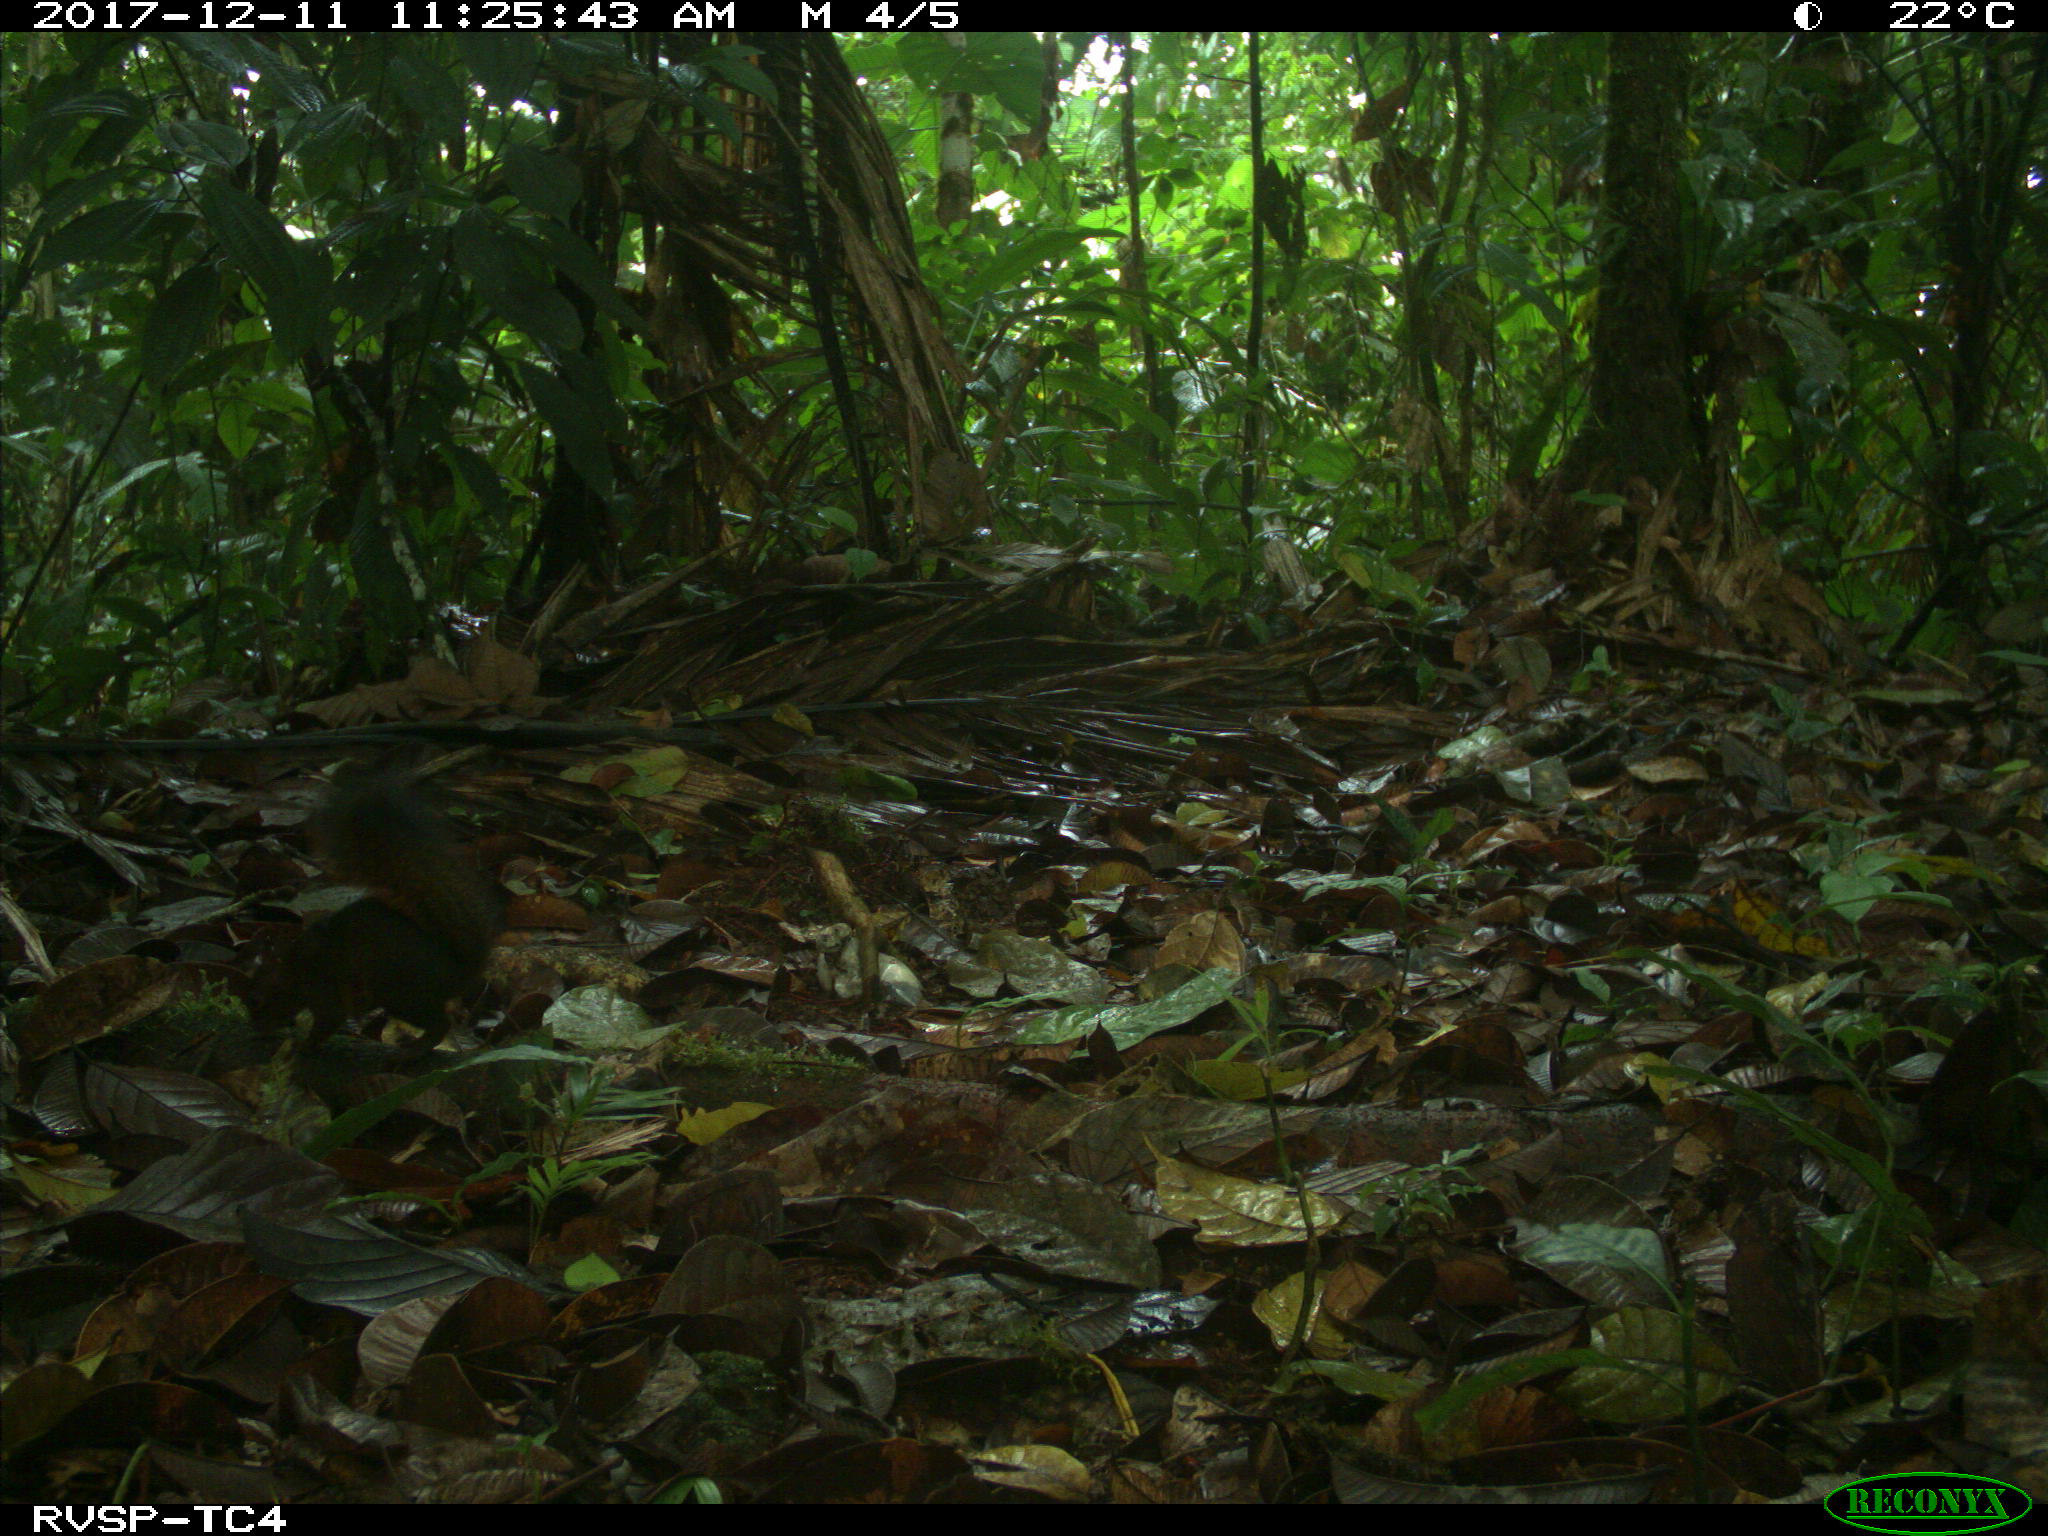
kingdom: Animalia
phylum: Chordata
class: Mammalia
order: Rodentia
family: Sciuridae
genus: Sciurus
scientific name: Sciurus granatensis
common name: Red-tailed squirrel
